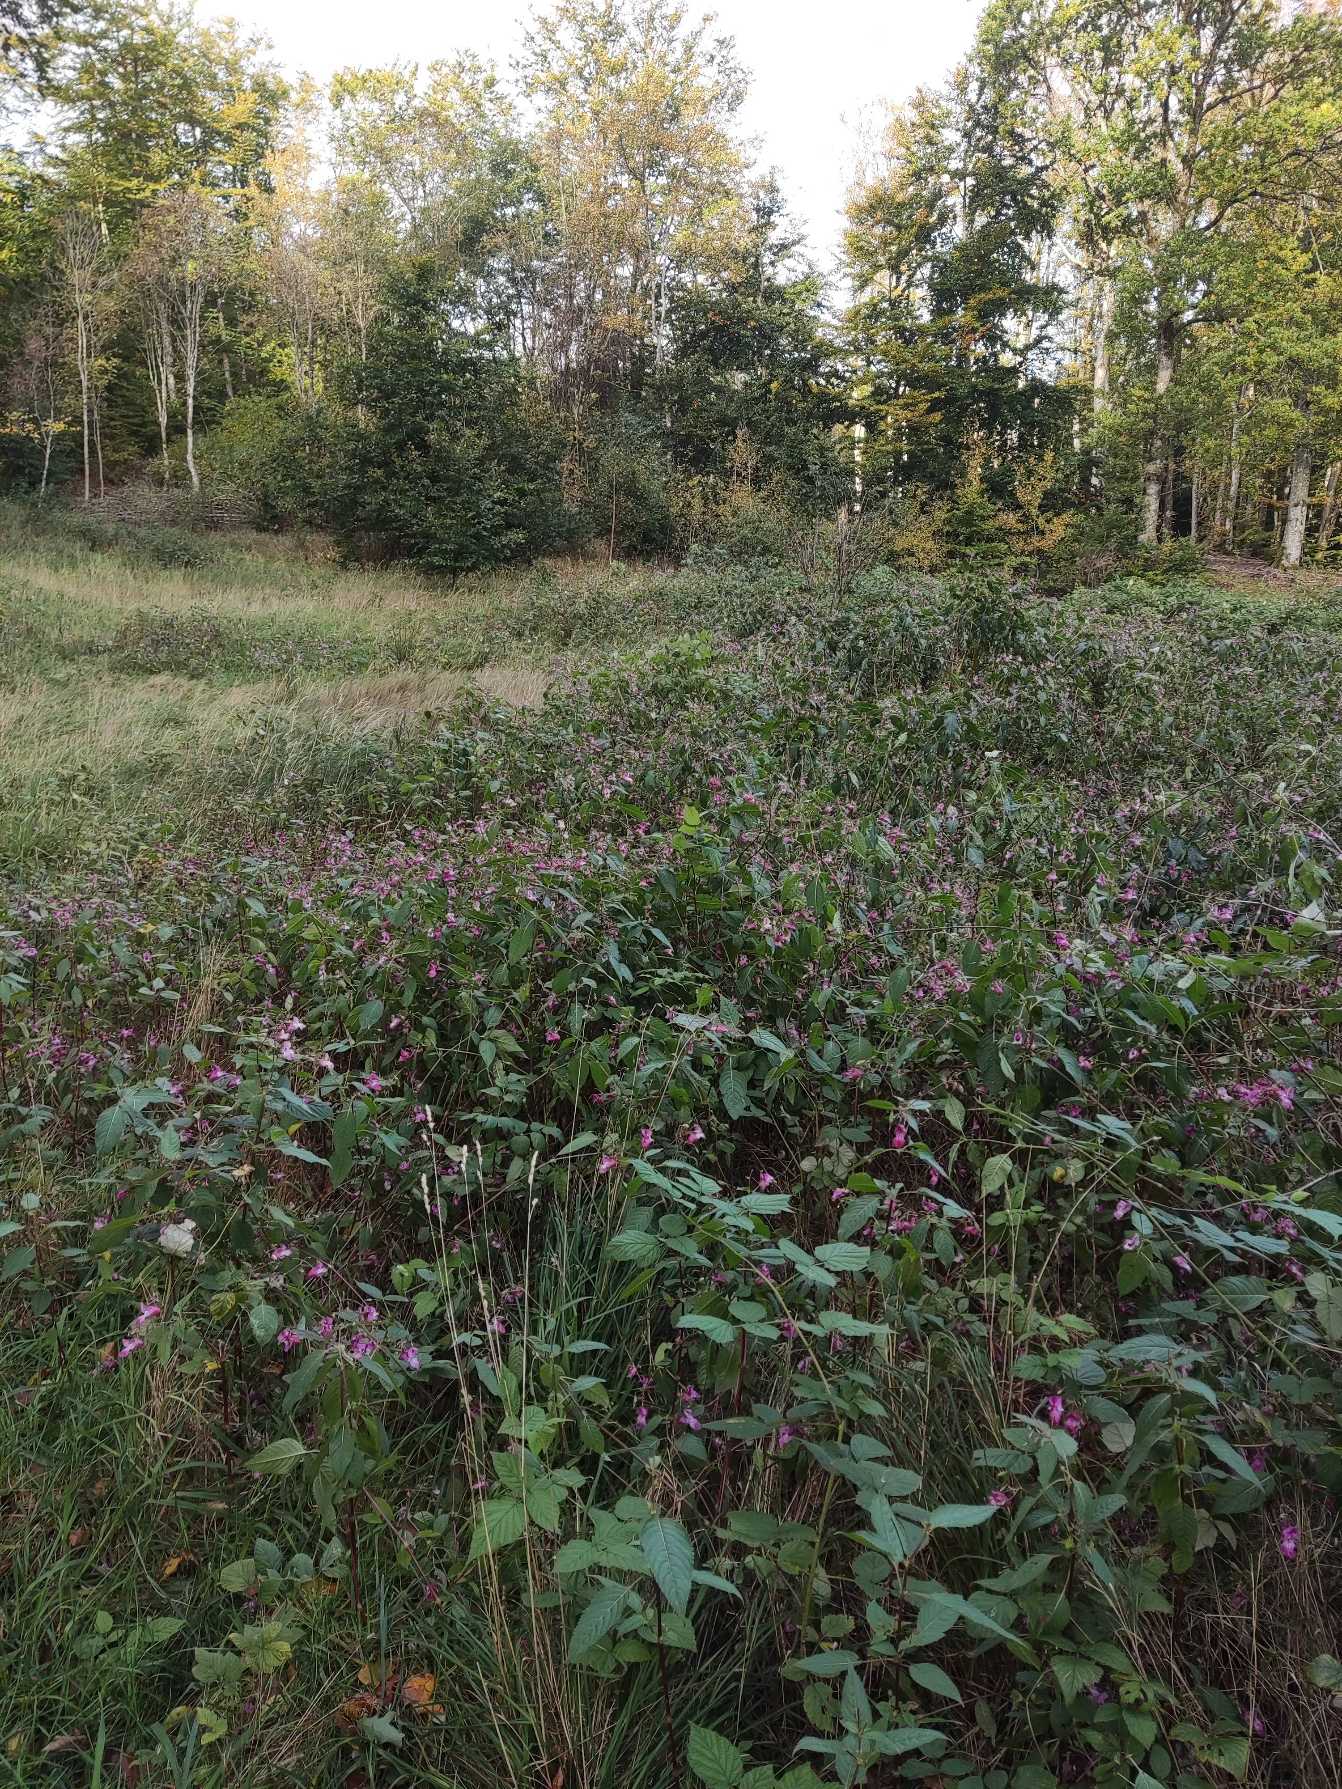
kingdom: Plantae
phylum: Tracheophyta
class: Magnoliopsida
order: Ericales
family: Balsaminaceae
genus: Impatiens
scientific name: Impatiens glandulifera
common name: Kæmpe-balsamin
